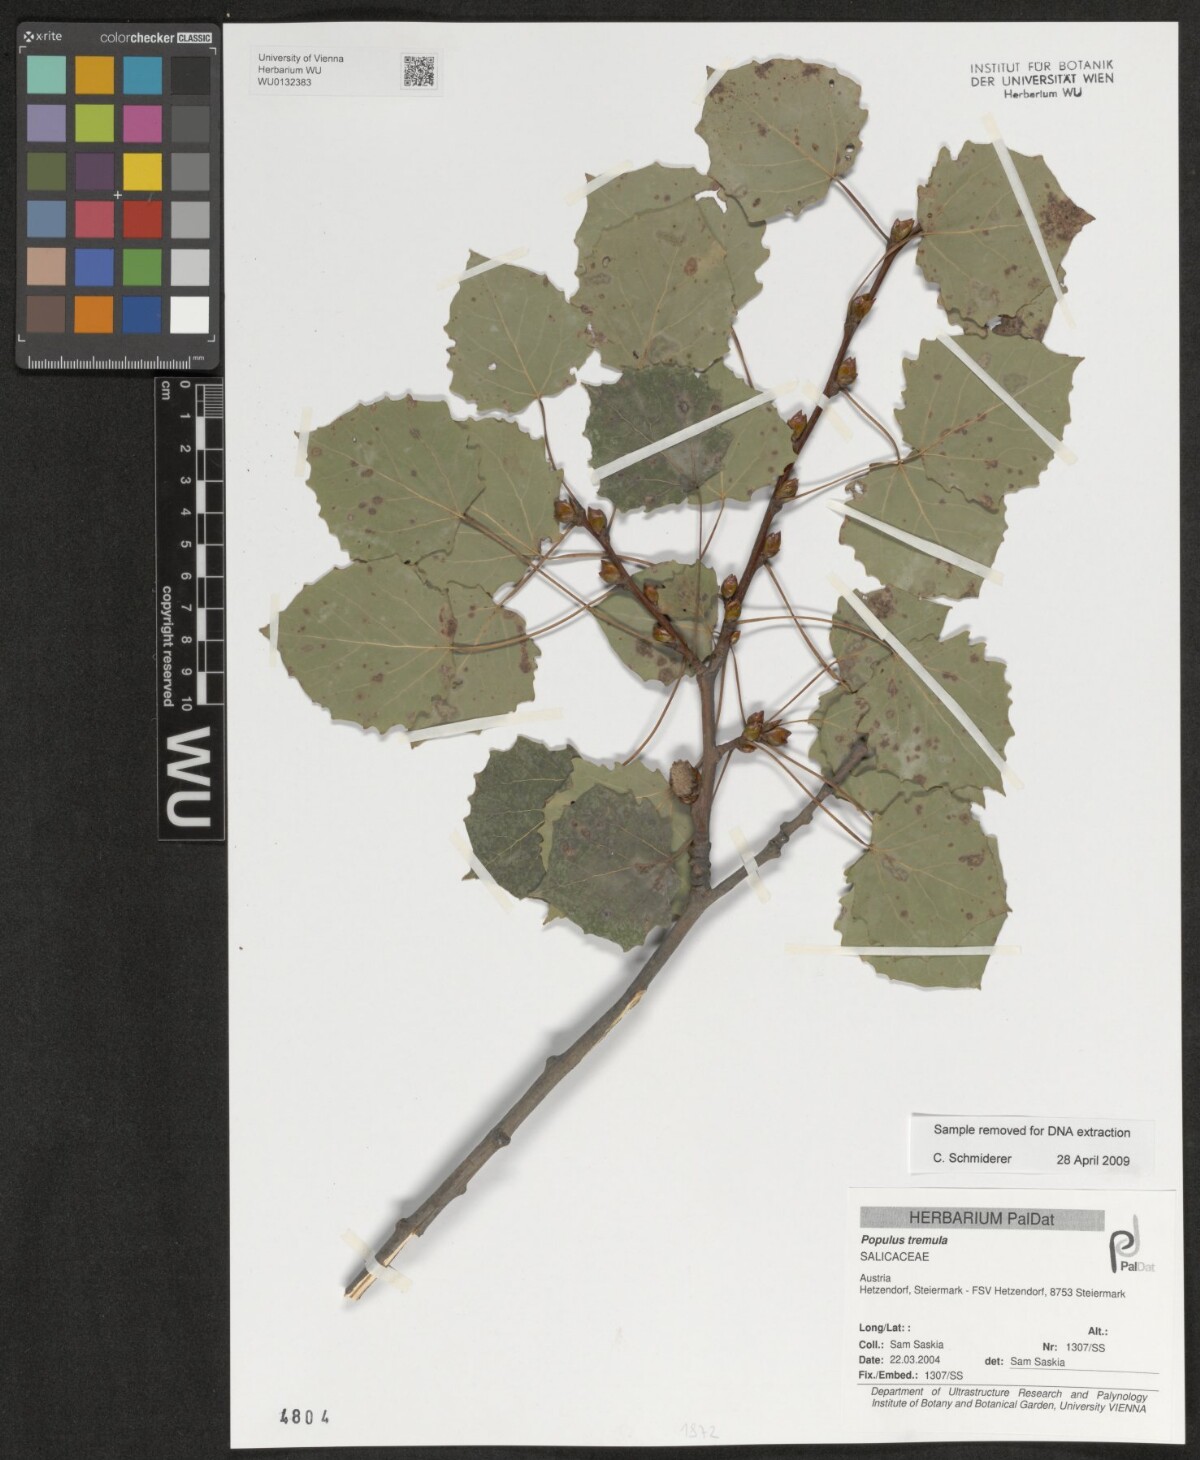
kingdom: Plantae
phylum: Tracheophyta
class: Magnoliopsida
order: Malpighiales
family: Salicaceae
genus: Populus
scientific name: Populus tremula
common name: European aspen
